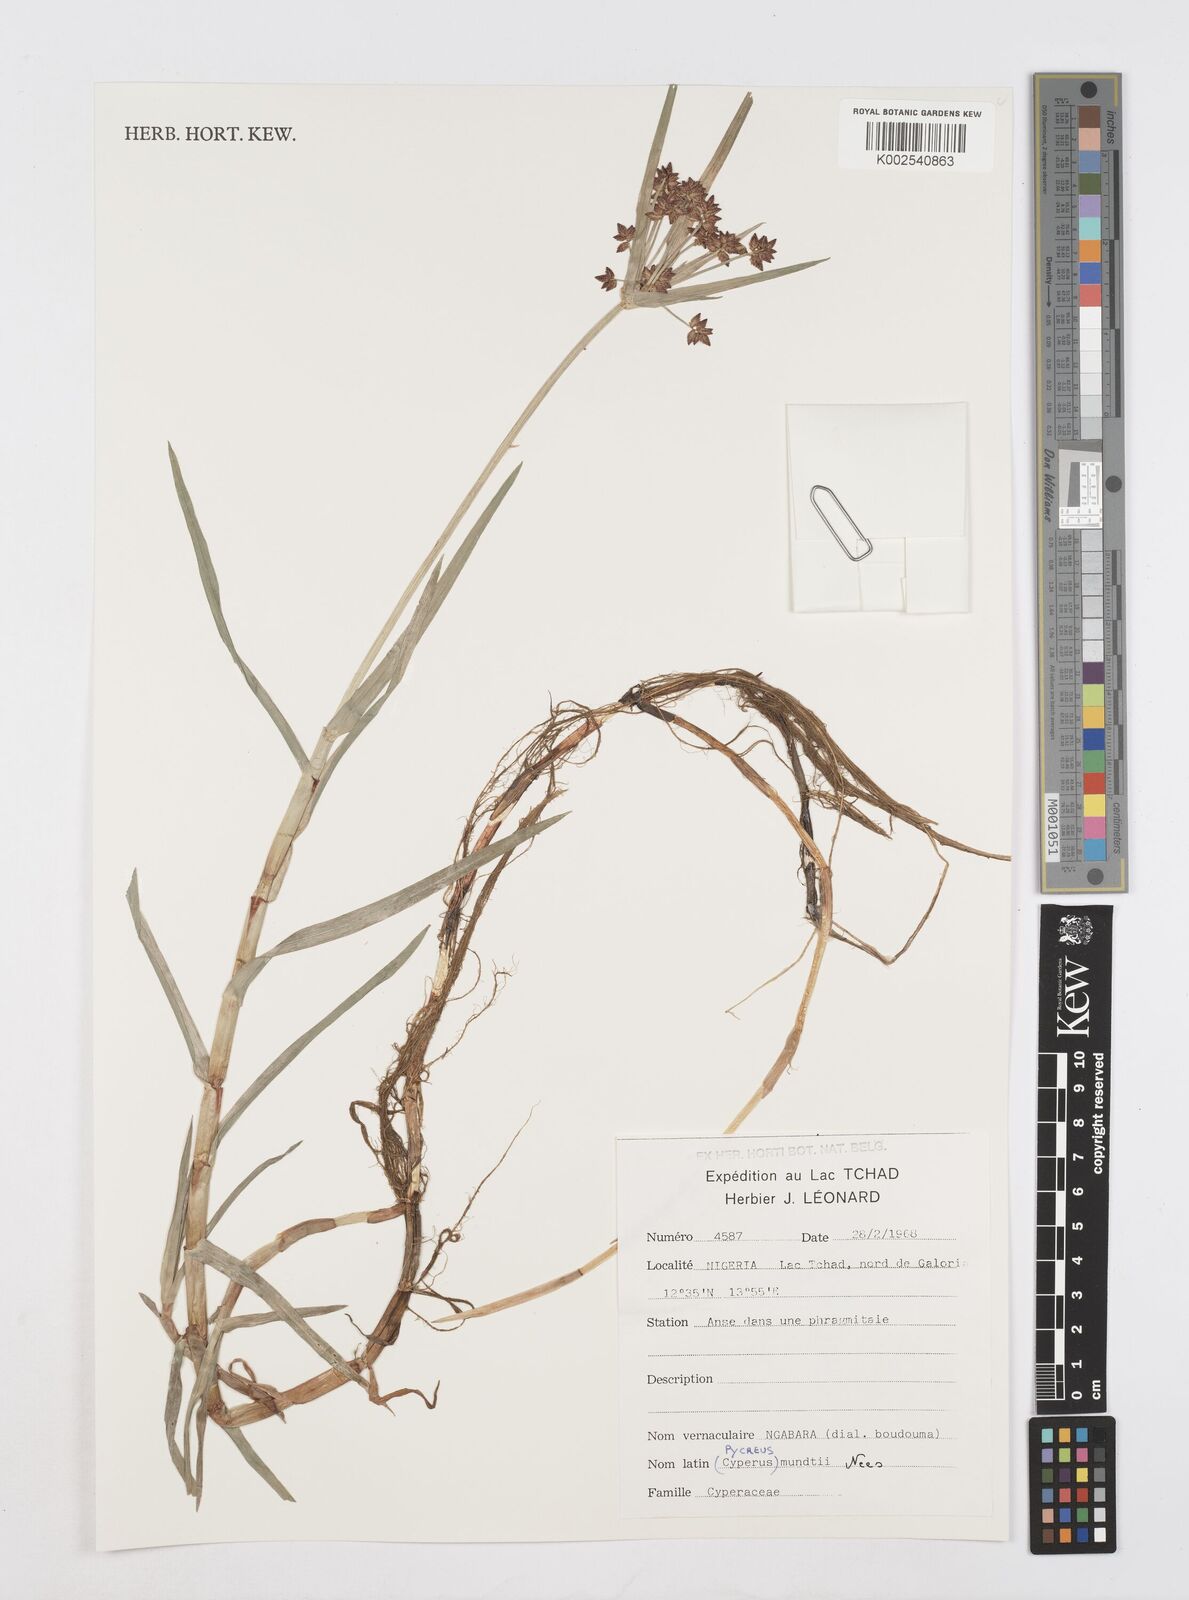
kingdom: Plantae
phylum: Tracheophyta
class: Liliopsida
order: Poales
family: Cyperaceae
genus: Cyperus
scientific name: Cyperus mundii
